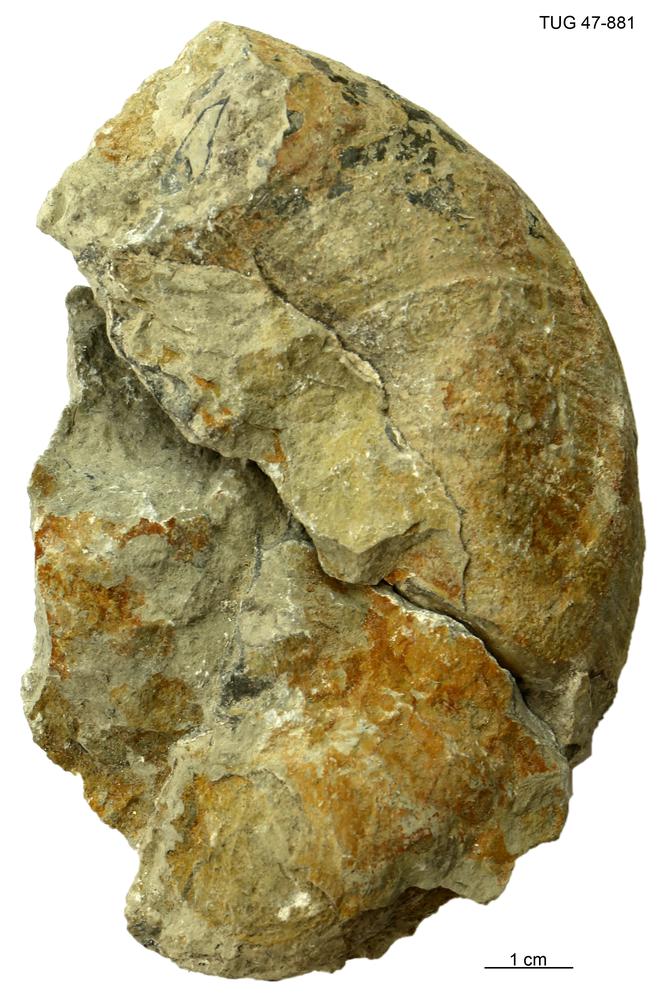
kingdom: Animalia
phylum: Mollusca
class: Cephalopoda
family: Trocholitidae
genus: Discoceras
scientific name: Discoceras
